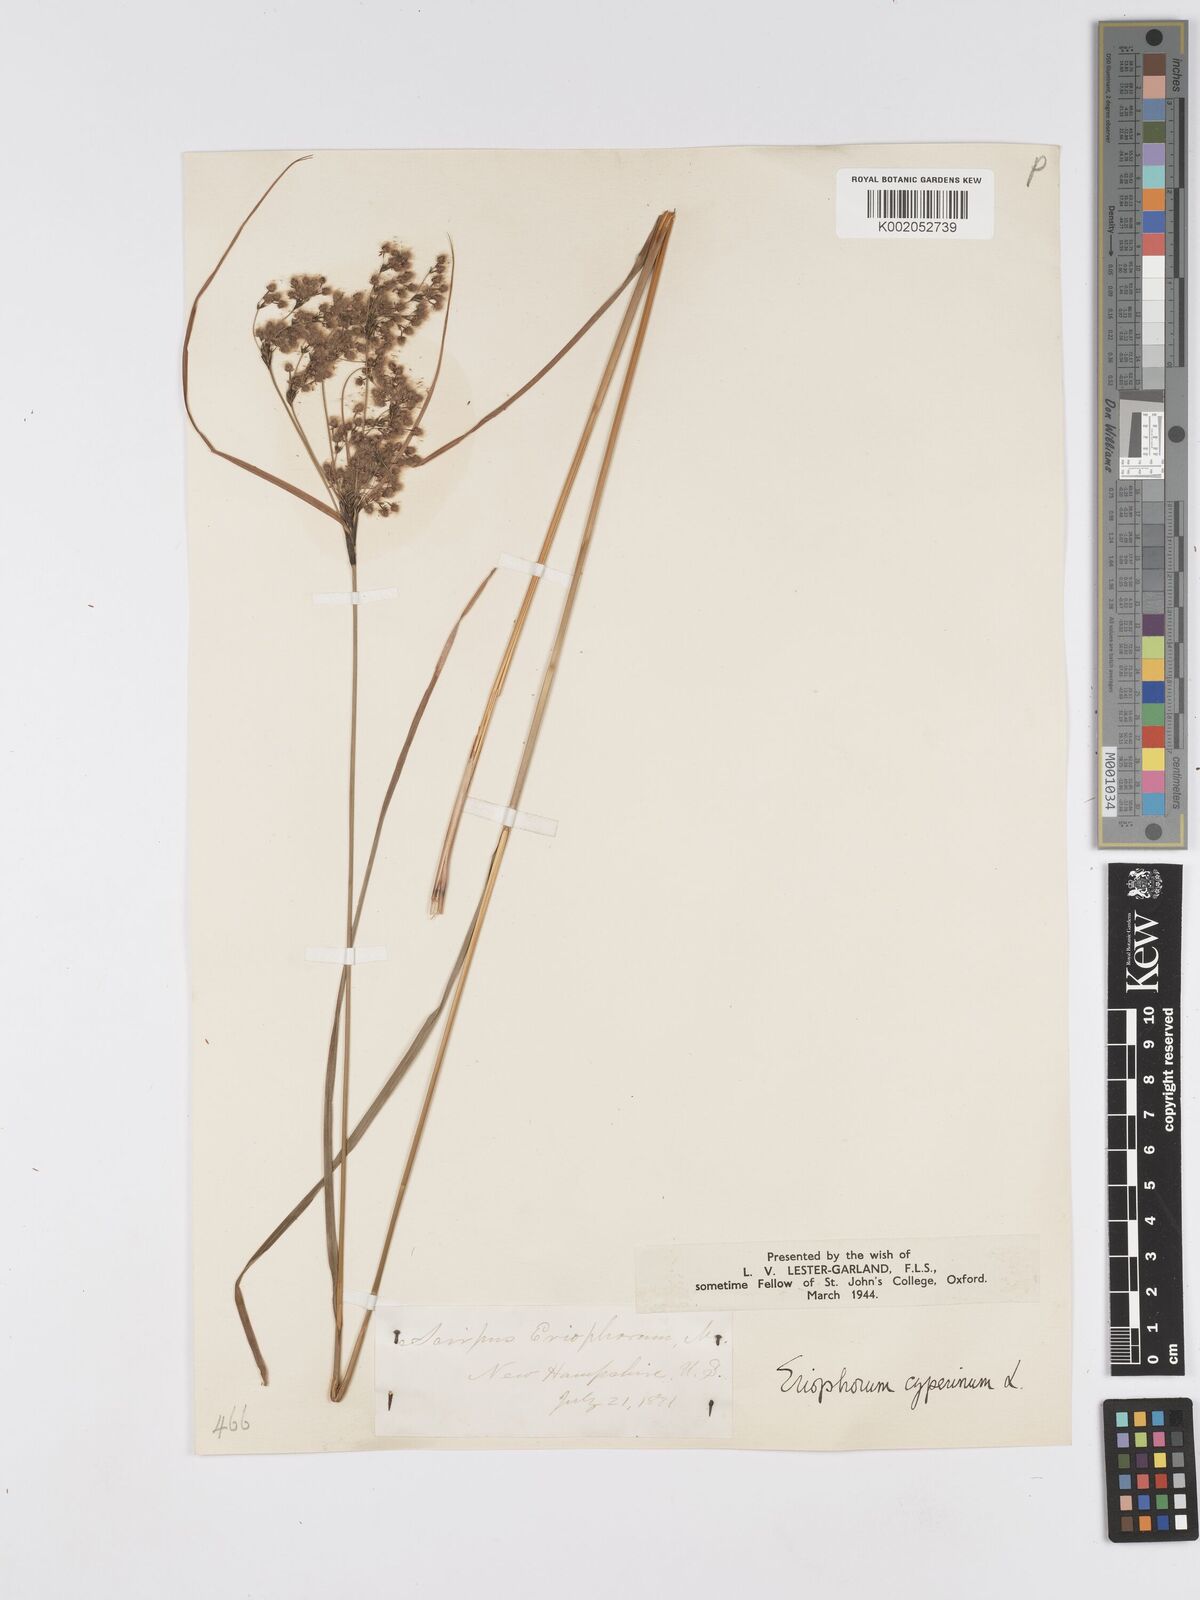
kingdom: Plantae
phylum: Tracheophyta
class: Liliopsida
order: Poales
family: Cyperaceae
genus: Scirpus
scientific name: Scirpus cyperinus
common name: Black-sheathed bulrush
